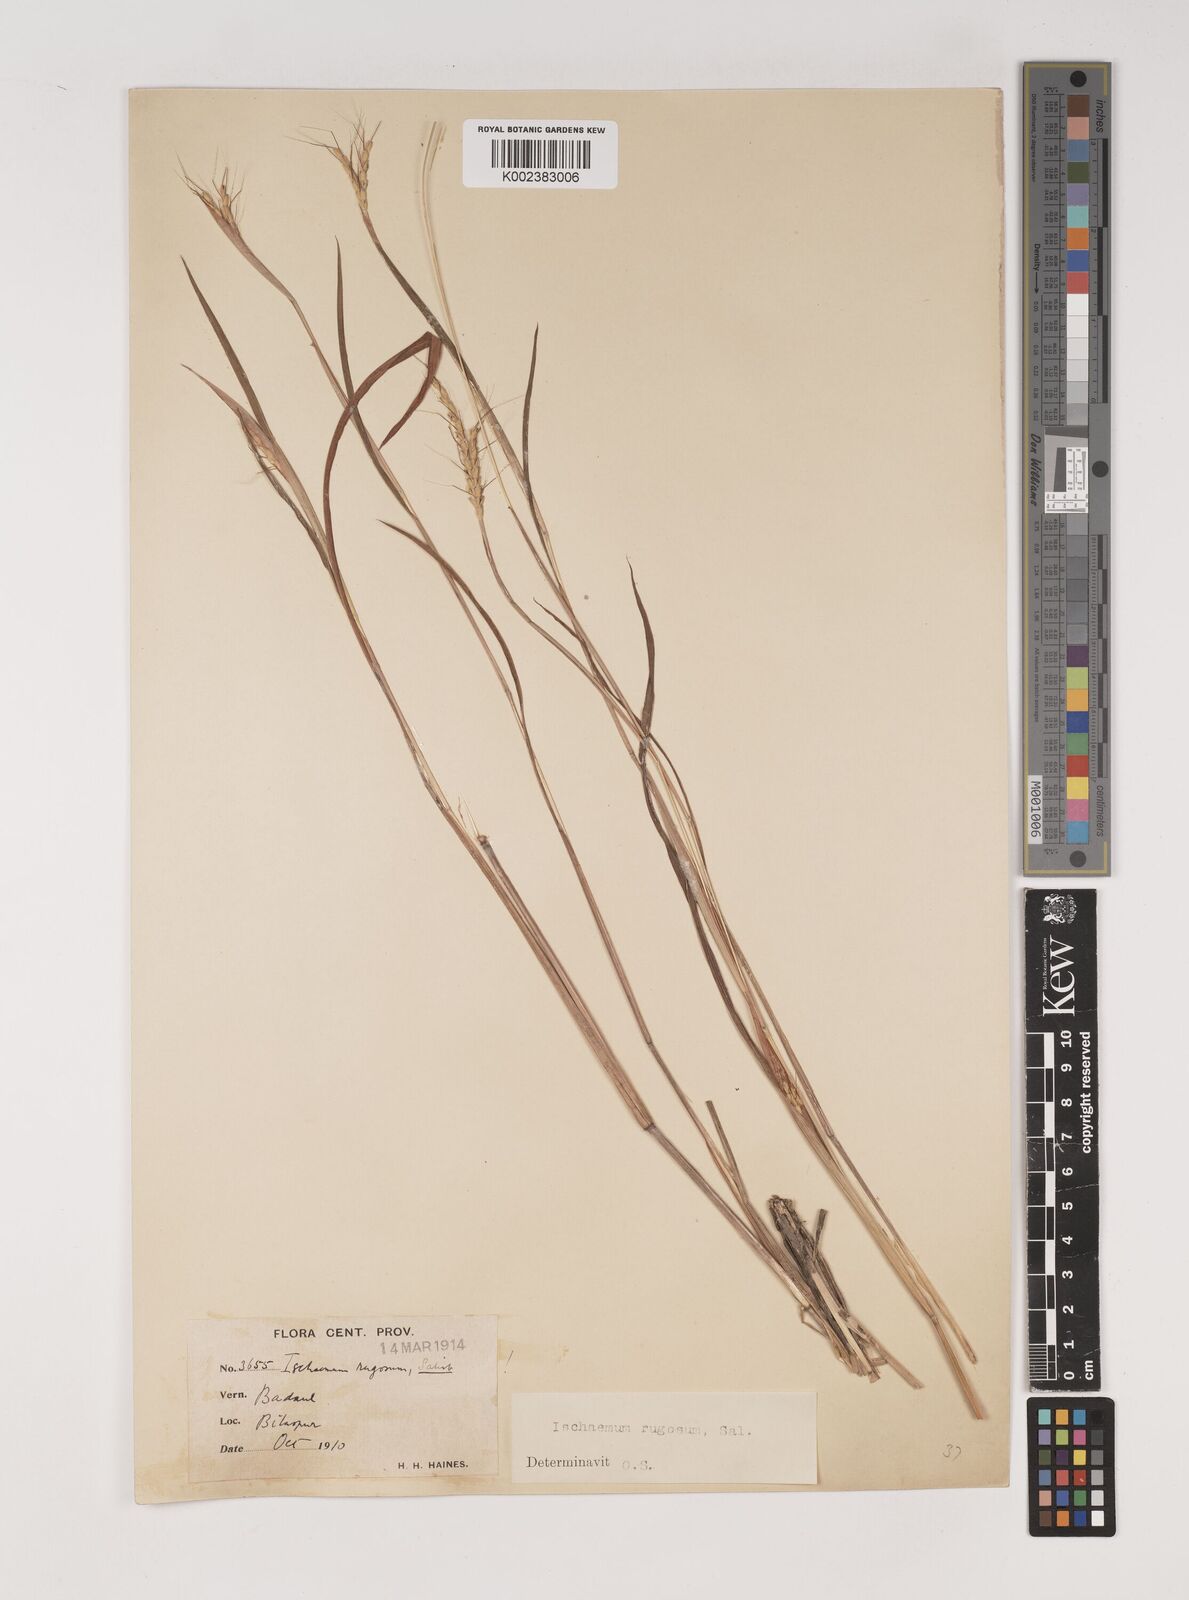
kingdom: Plantae
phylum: Tracheophyta
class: Liliopsida
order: Poales
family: Poaceae
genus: Ischaemum
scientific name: Ischaemum rugosum
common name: Saramatta grass
